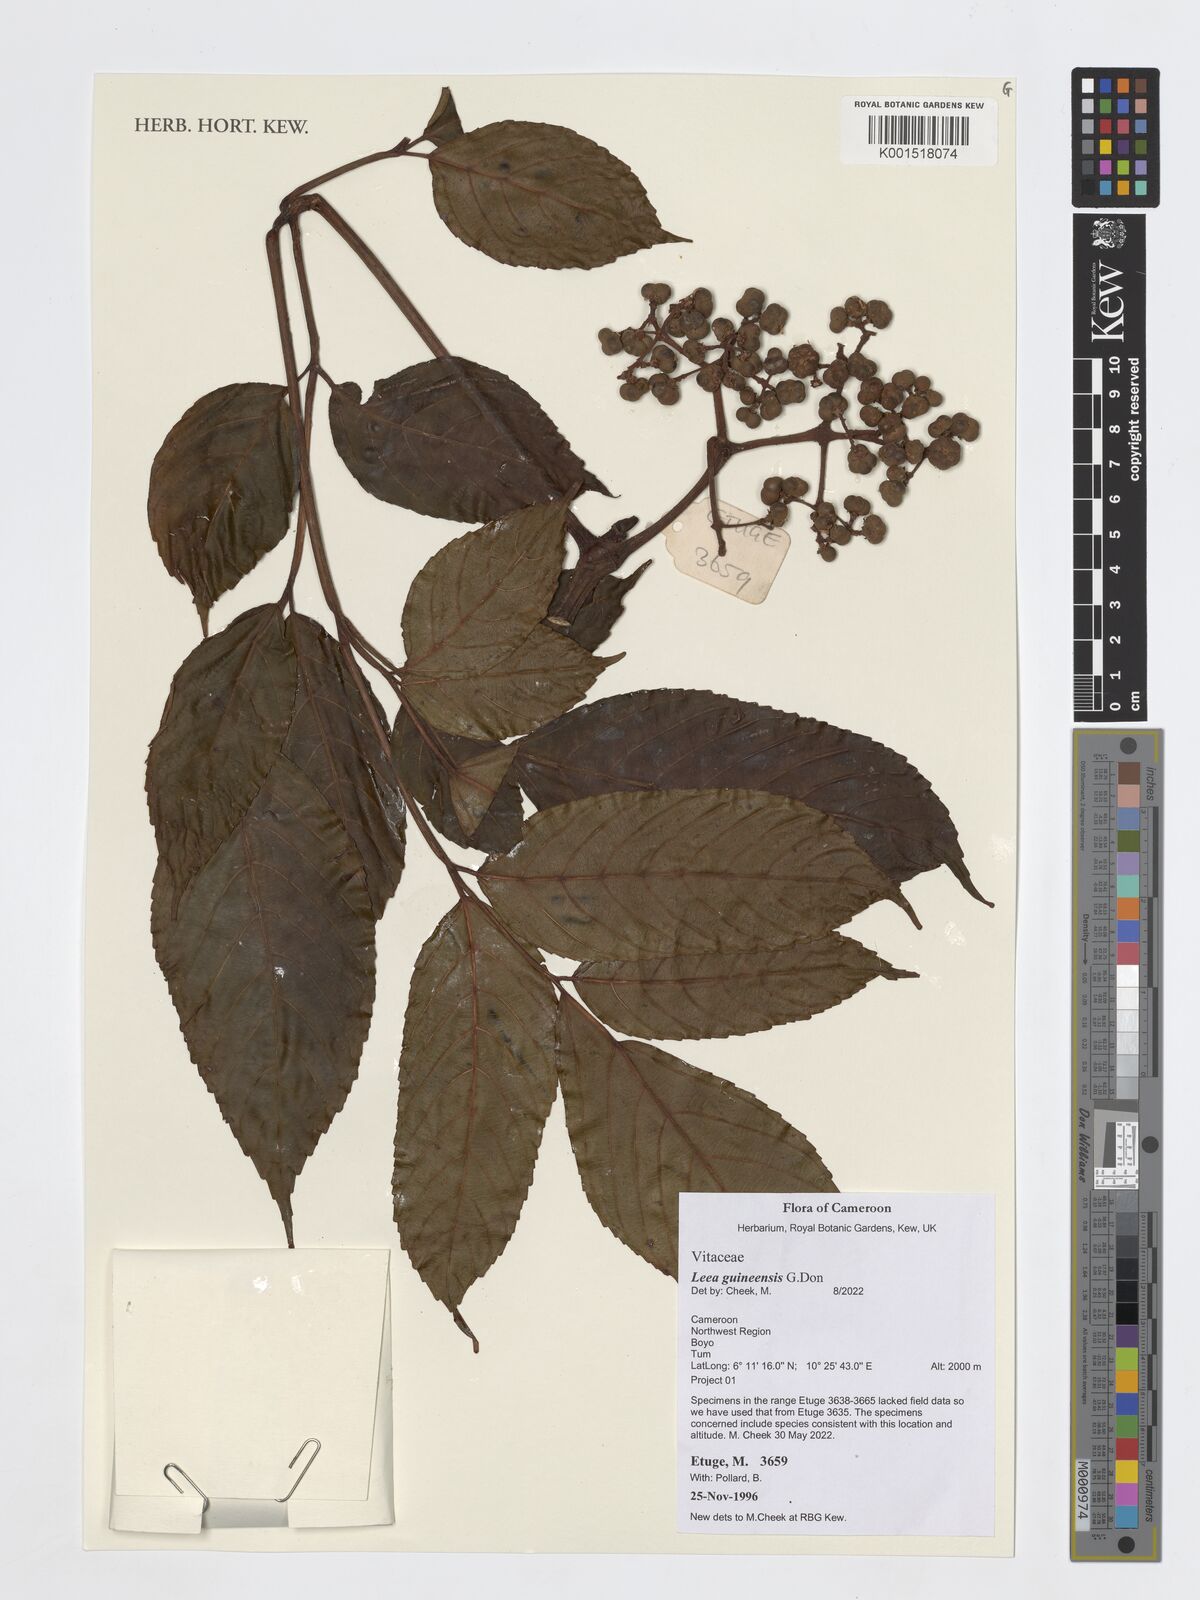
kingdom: Plantae
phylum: Tracheophyta
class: Magnoliopsida
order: Vitales
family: Vitaceae
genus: Leea
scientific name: Leea guineensis
